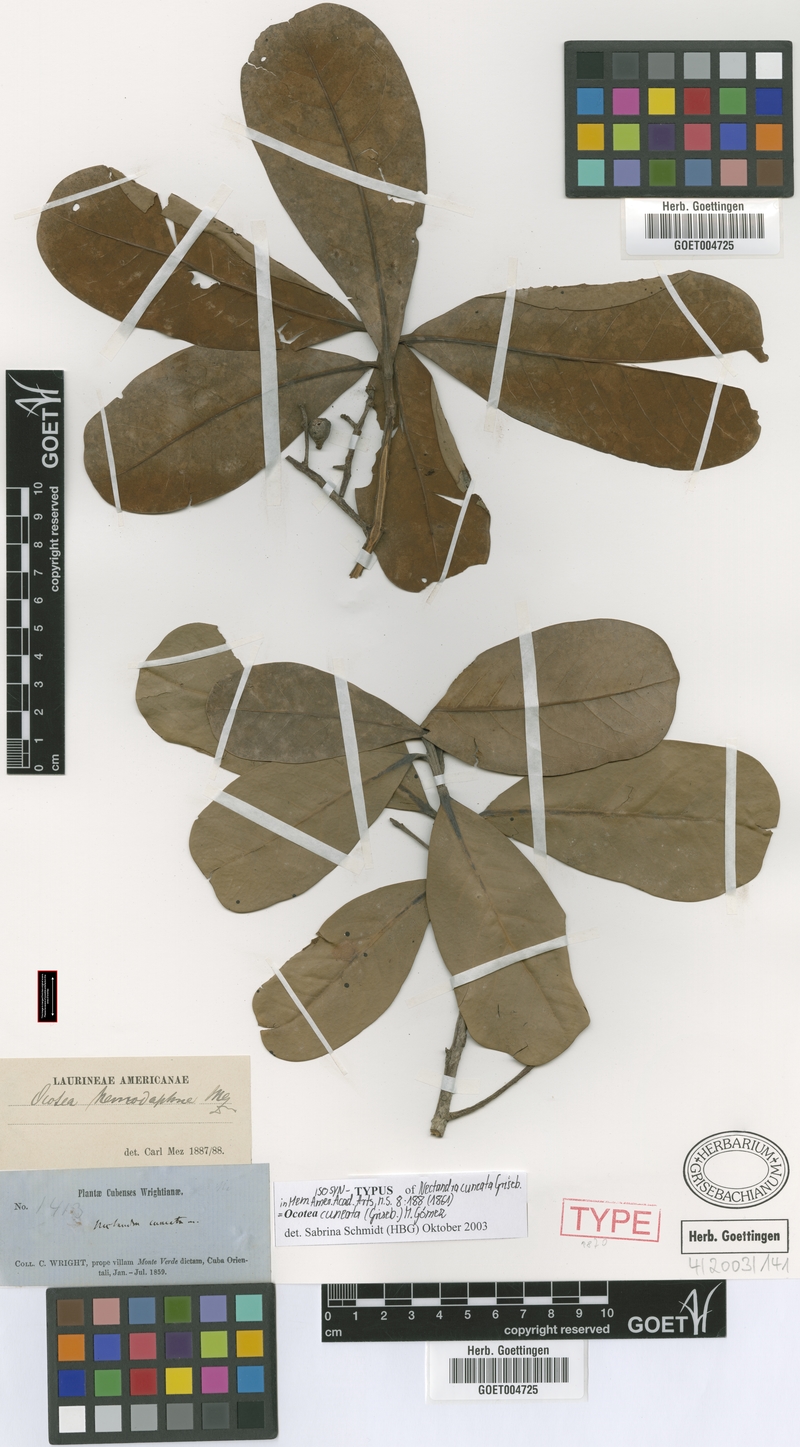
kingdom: Plantae
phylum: Tracheophyta
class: Magnoliopsida
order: Laurales
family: Lauraceae
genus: Ocotea
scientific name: Ocotea cuneata
